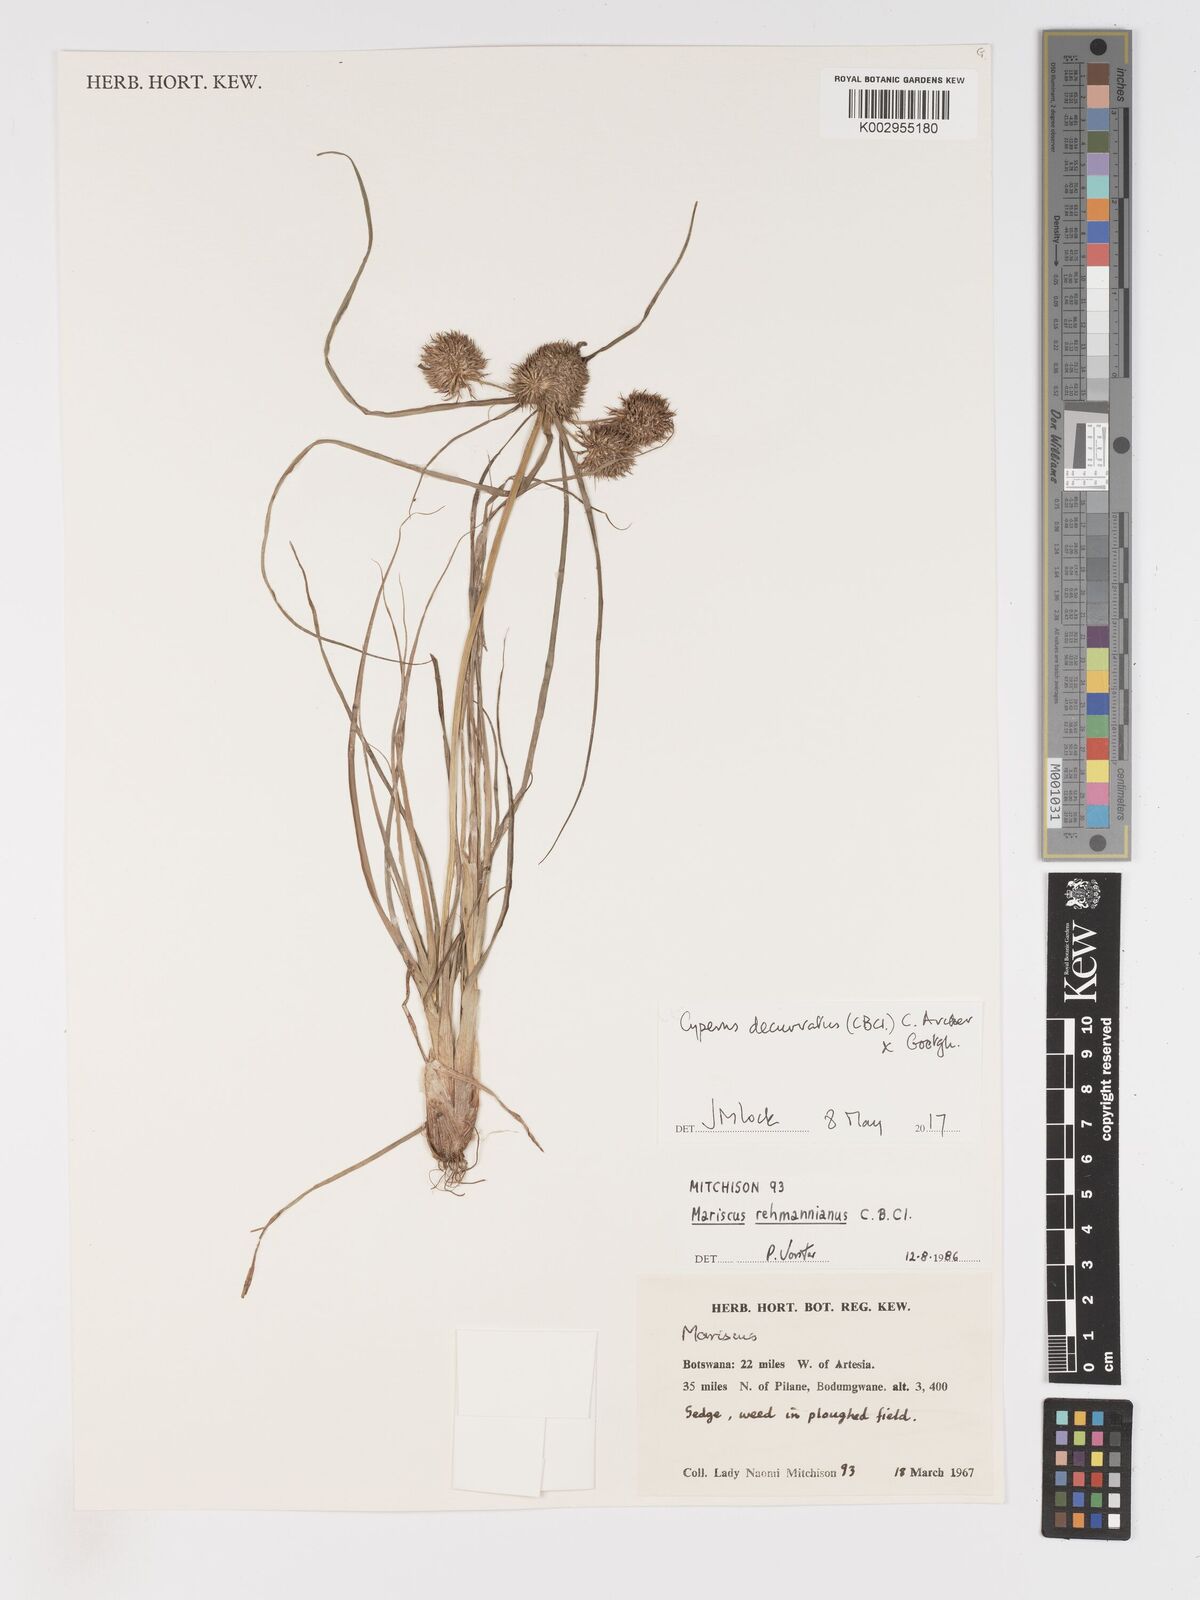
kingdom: Plantae
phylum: Tracheophyta
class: Liliopsida
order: Poales
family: Cyperaceae
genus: Cyperus
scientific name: Cyperus decurvatus
